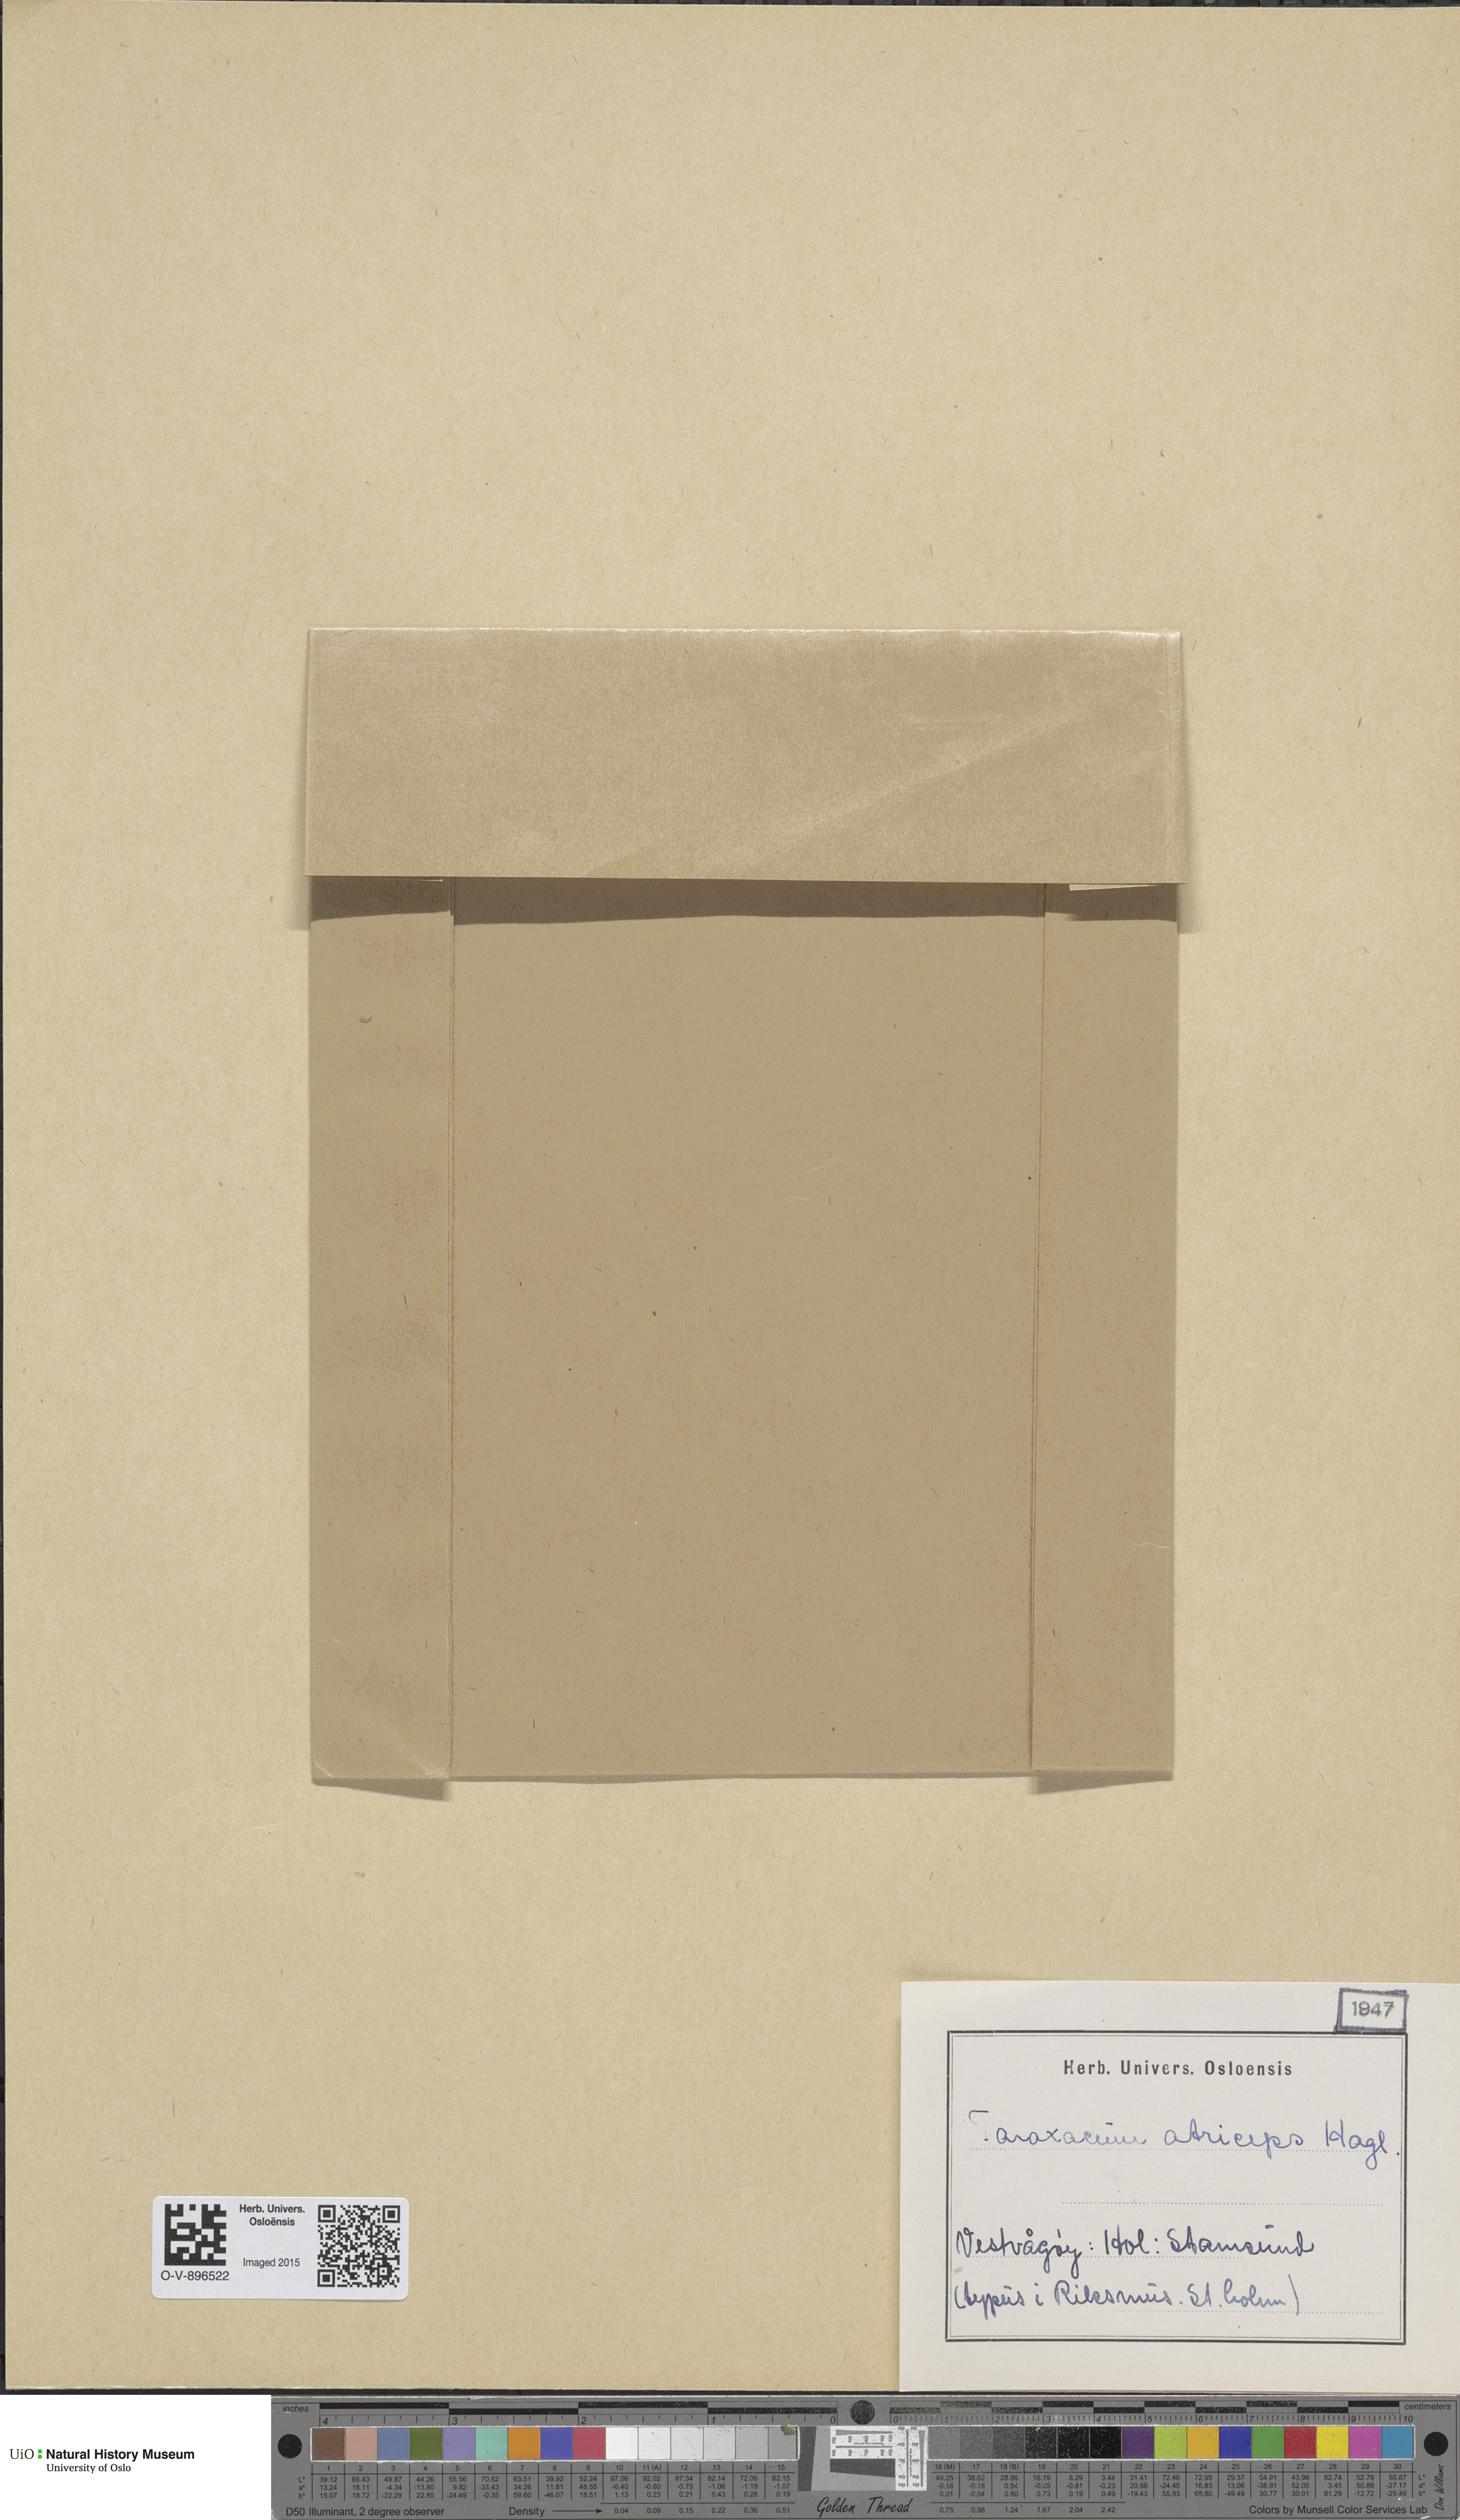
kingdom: Plantae
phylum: Tracheophyta
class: Magnoliopsida
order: Asterales
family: Asteraceae
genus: Taraxacum
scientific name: Taraxacum atriceps
